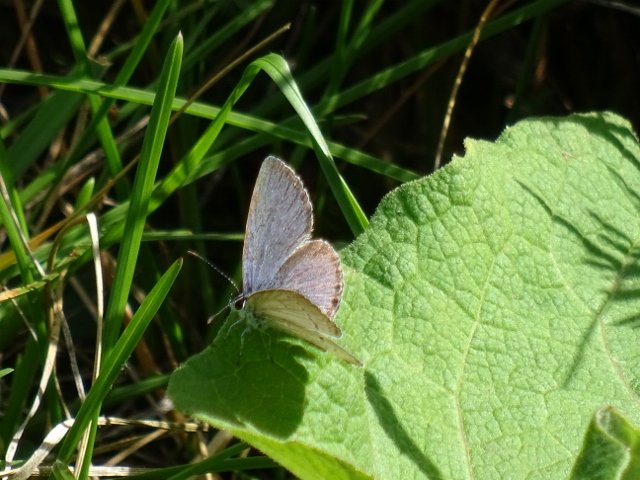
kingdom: Animalia
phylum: Arthropoda
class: Insecta
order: Lepidoptera
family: Lycaenidae
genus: Elkalyce
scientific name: Elkalyce comyntas
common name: Eastern Tailed-Blue
